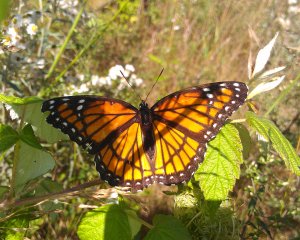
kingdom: Animalia
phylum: Arthropoda
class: Insecta
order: Lepidoptera
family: Nymphalidae
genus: Limenitis
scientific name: Limenitis archippus
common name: Viceroy
